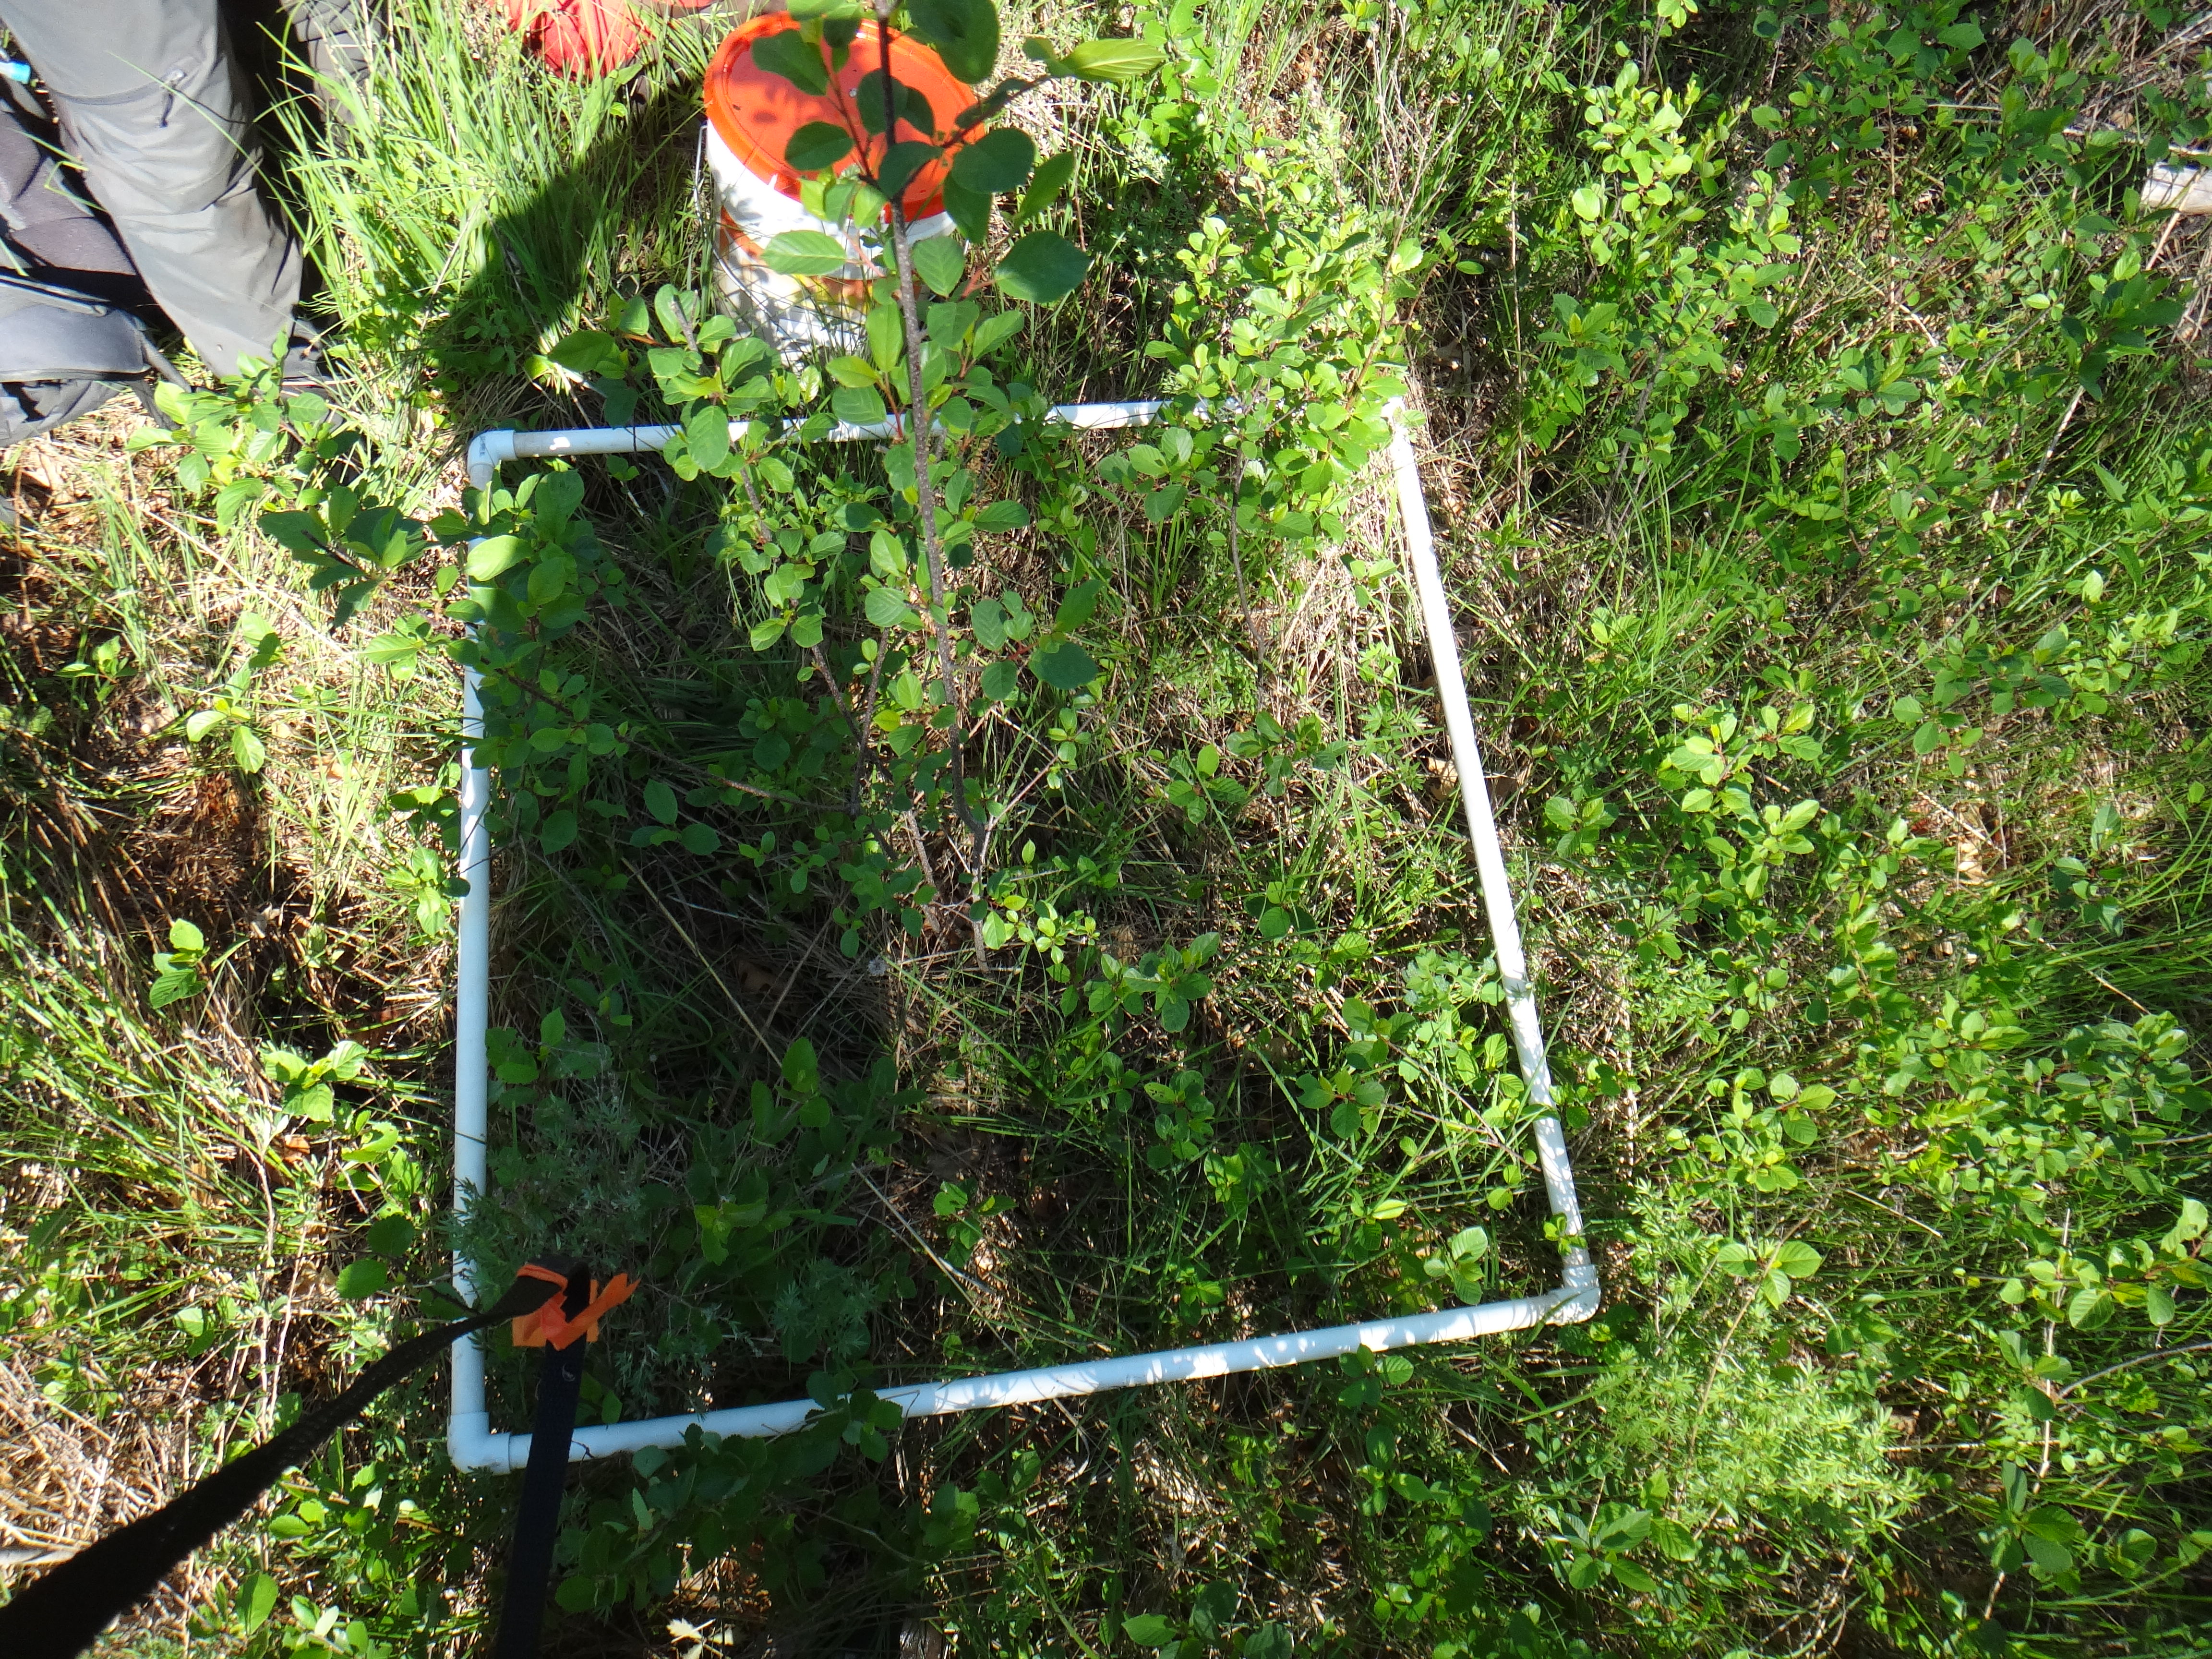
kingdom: Plantae
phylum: Tracheophyta
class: Polypodiopsida
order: Polypodiales
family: Thelypteridaceae
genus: Thelypteris
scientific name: Thelypteris palustris
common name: Marsh fern
